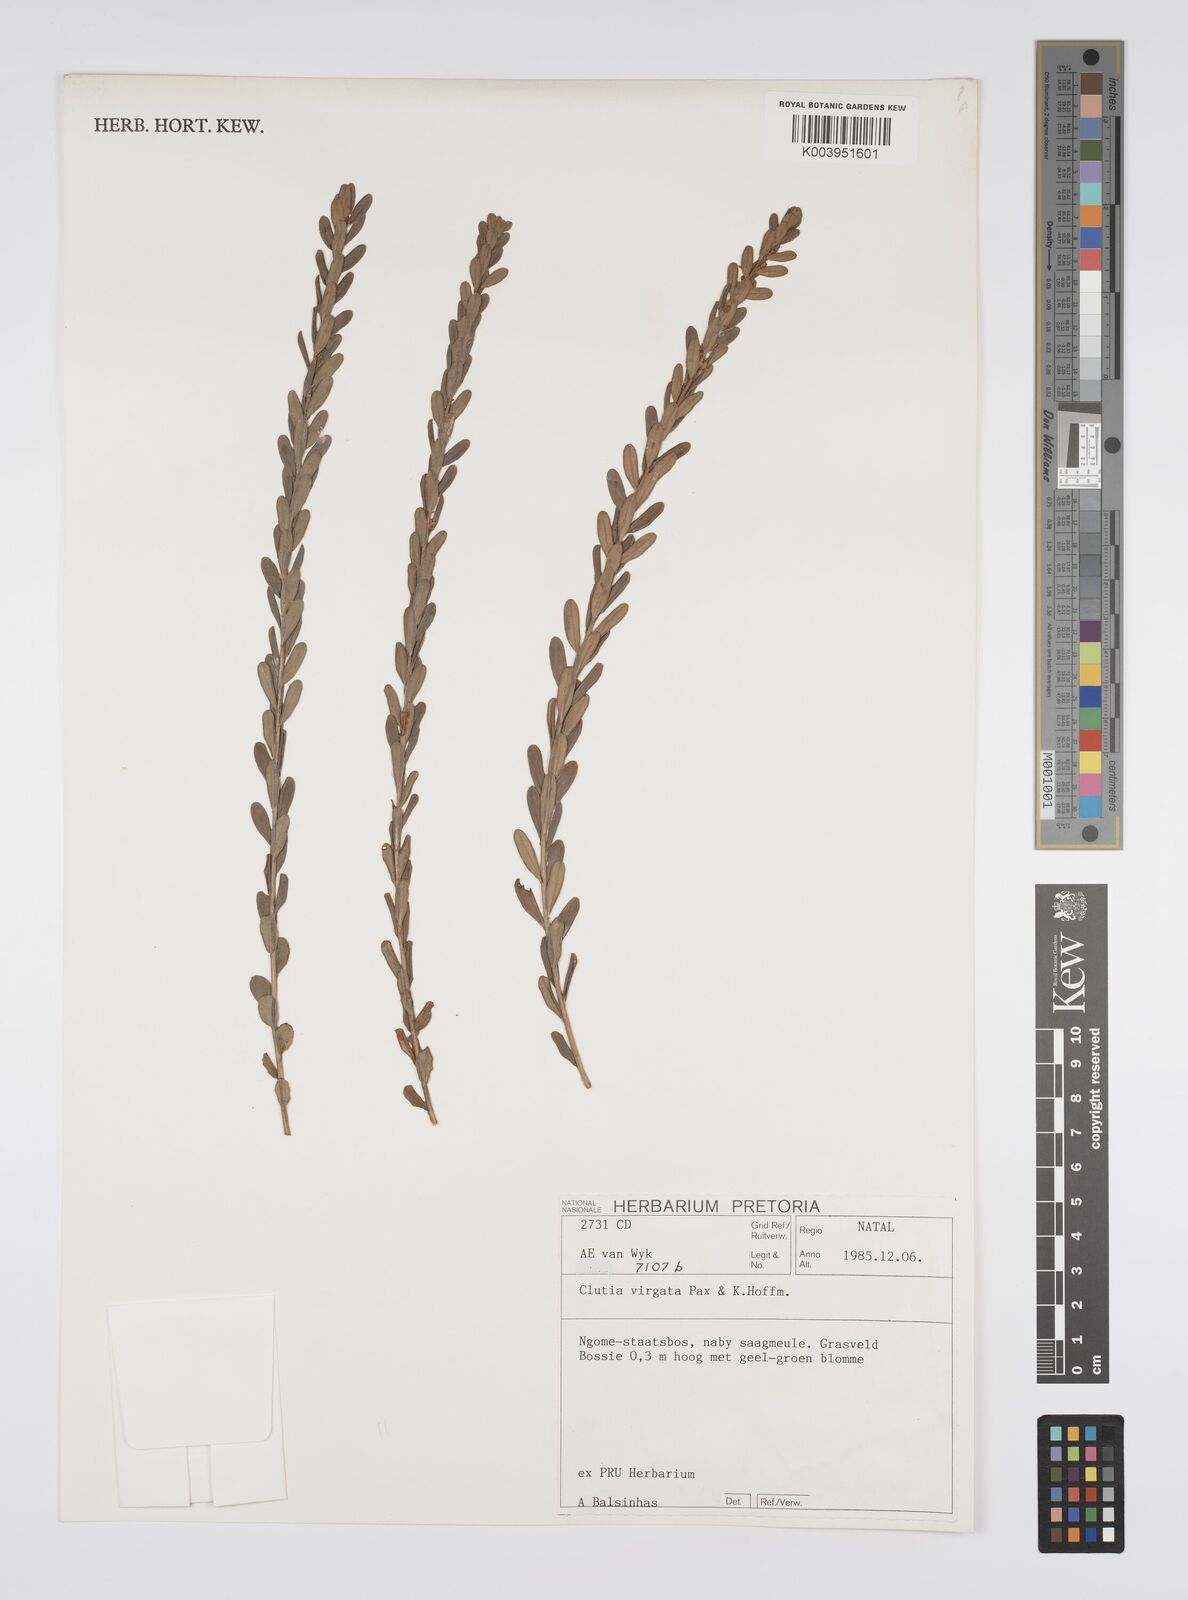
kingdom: Plantae
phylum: Tracheophyta
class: Magnoliopsida
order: Malpighiales
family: Peraceae
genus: Clutia
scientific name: Clutia virgata
